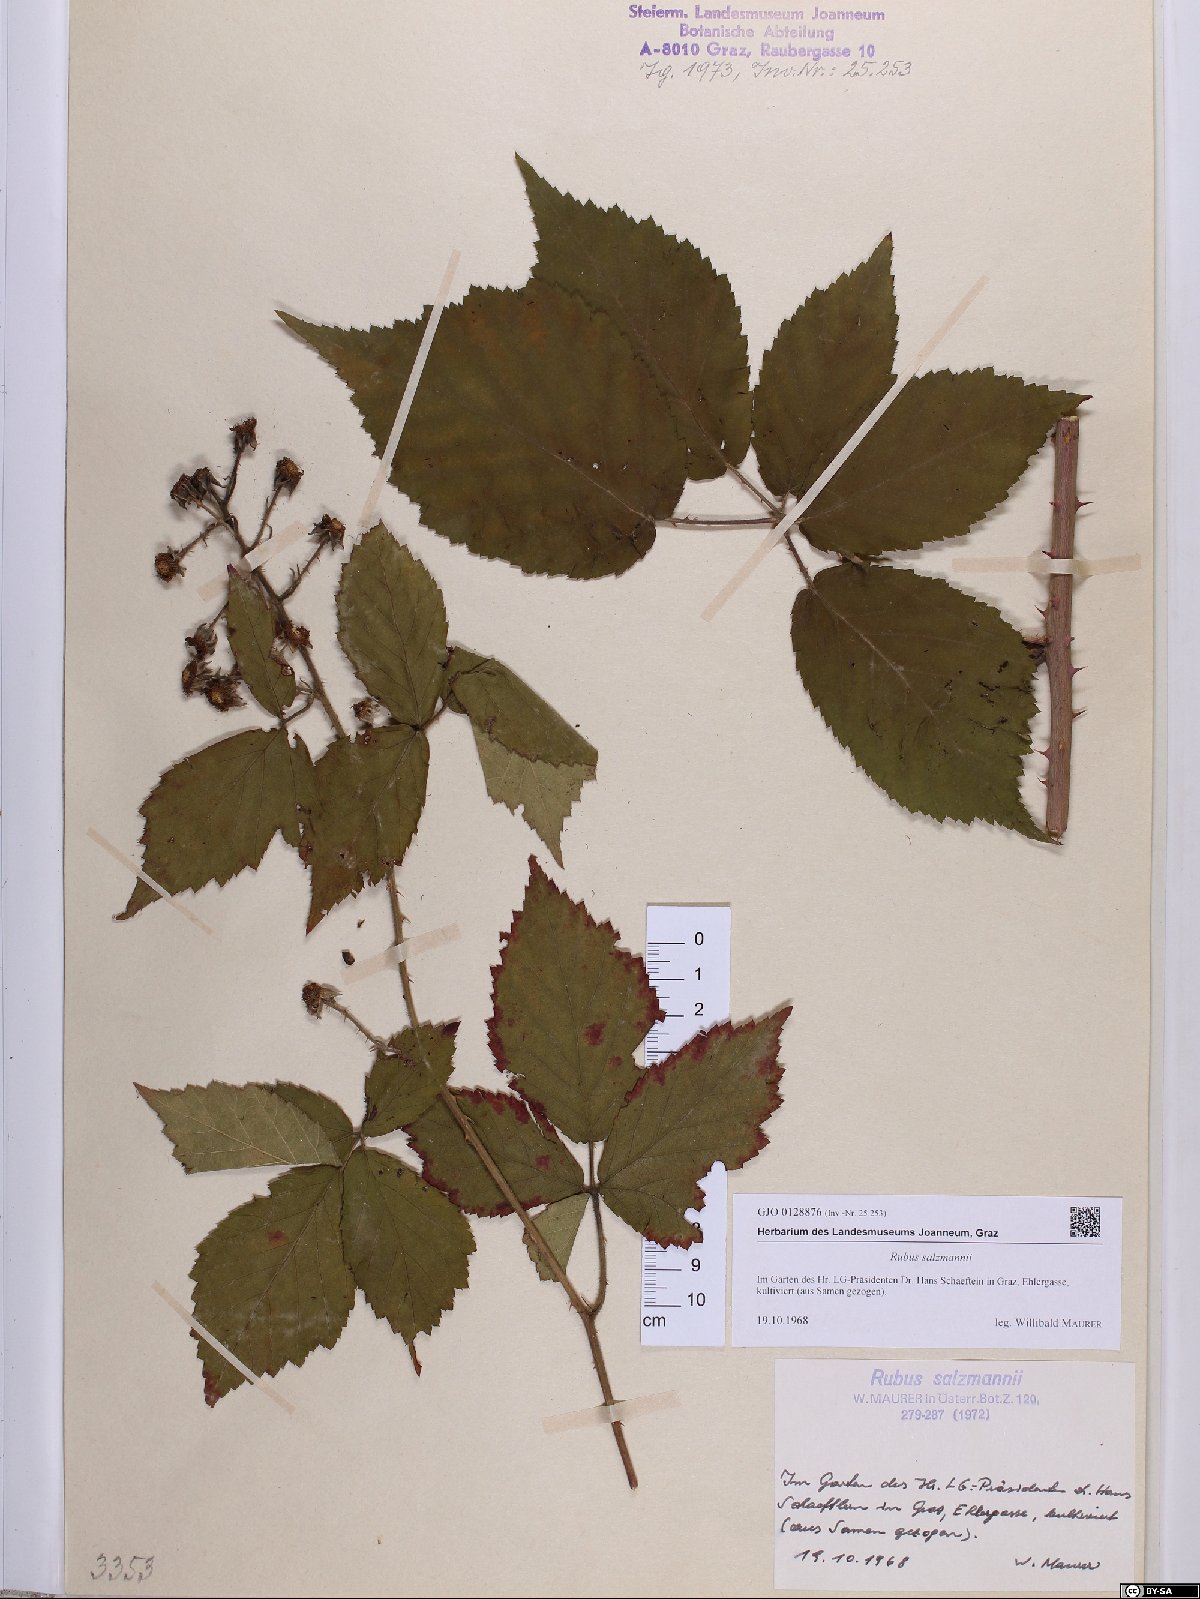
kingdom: Plantae
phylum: Tracheophyta
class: Magnoliopsida
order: Rosales
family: Rosaceae
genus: Rubus
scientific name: Rubus salzmannii
